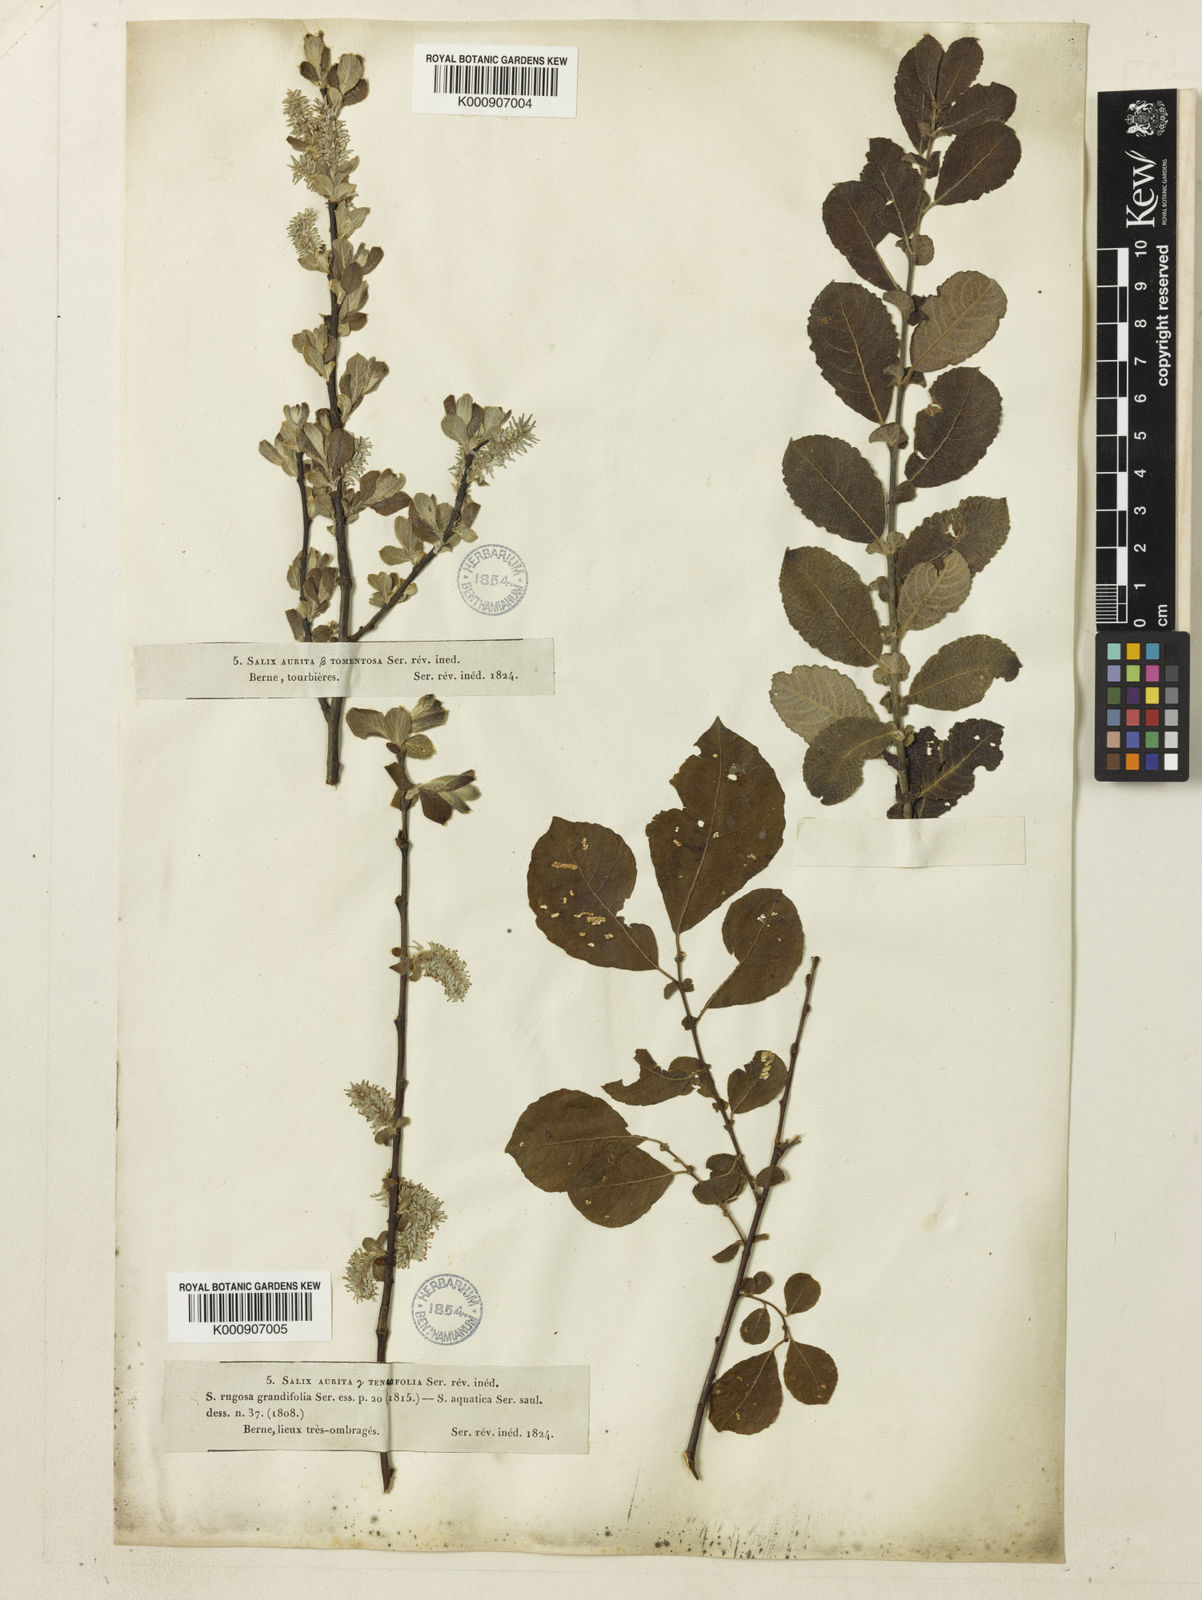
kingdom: Plantae
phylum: Tracheophyta
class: Magnoliopsida
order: Malpighiales
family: Salicaceae
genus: Salix
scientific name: Salix aurita
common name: Eared willow
